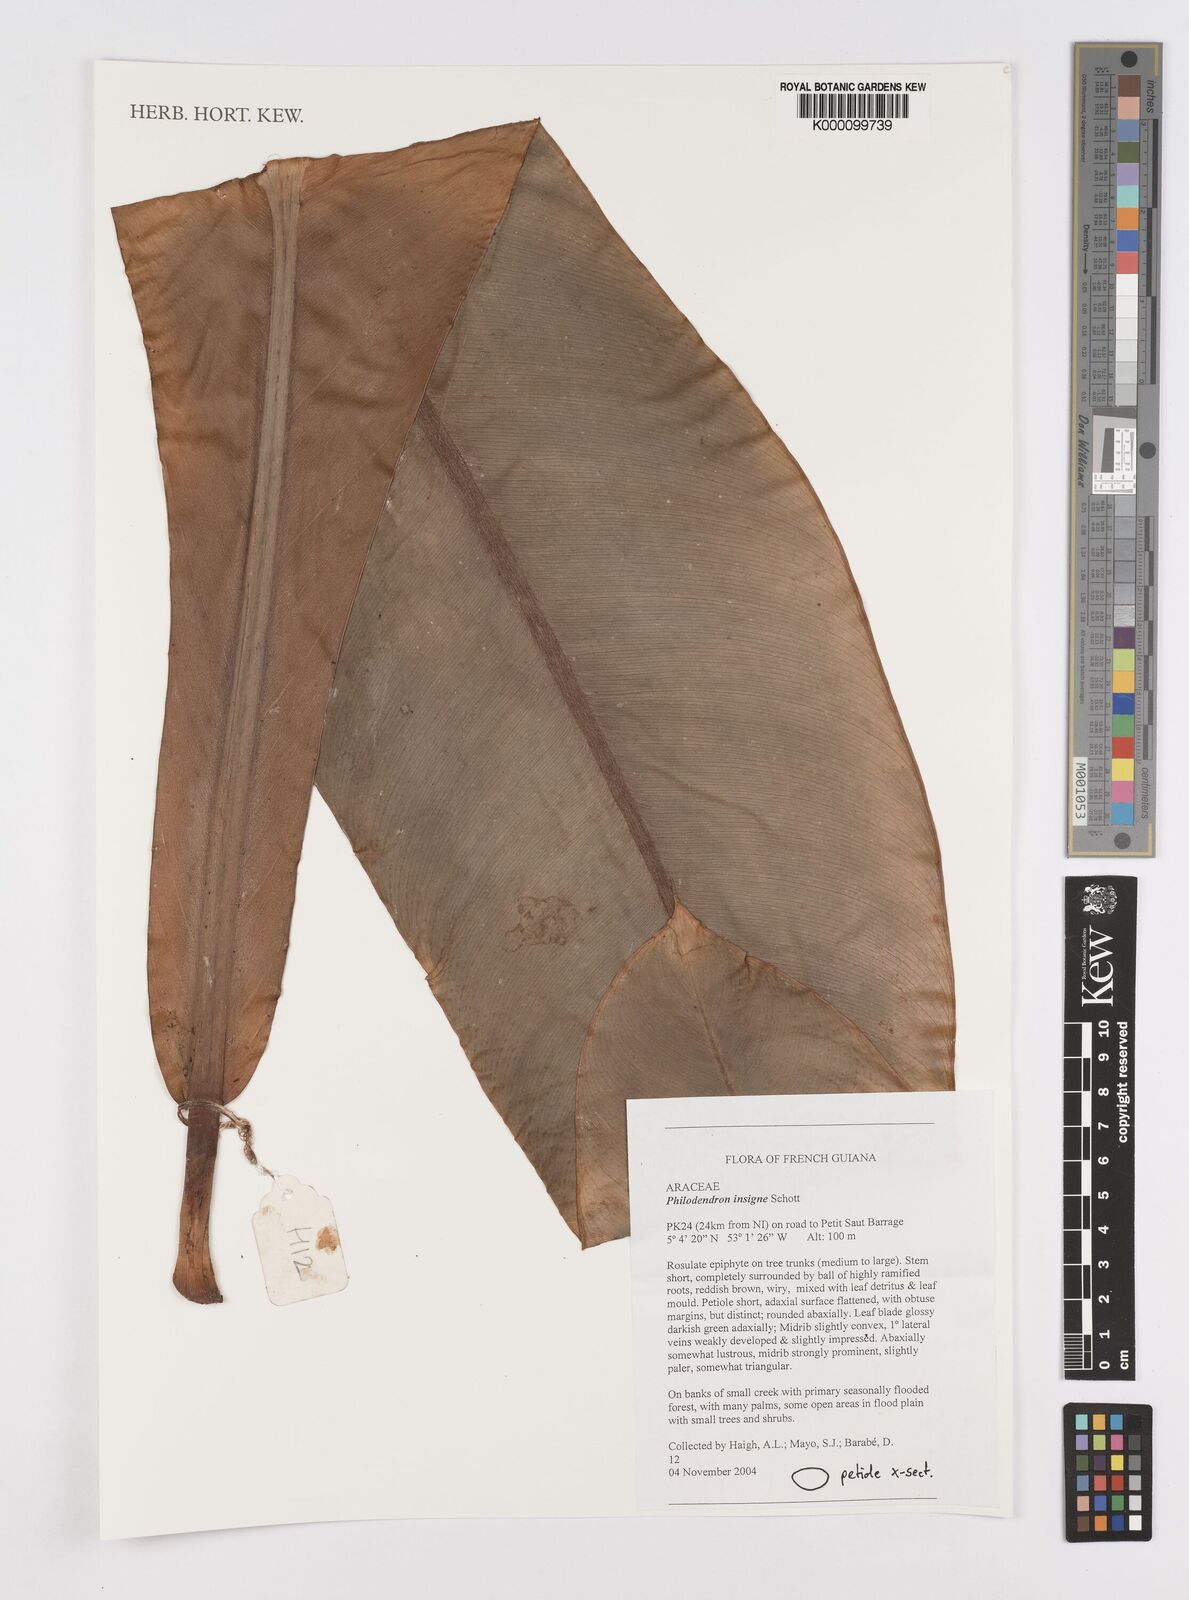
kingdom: Plantae
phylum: Tracheophyta
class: Liliopsida
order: Alismatales
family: Araceae
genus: Philodendron
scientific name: Philodendron insigne
